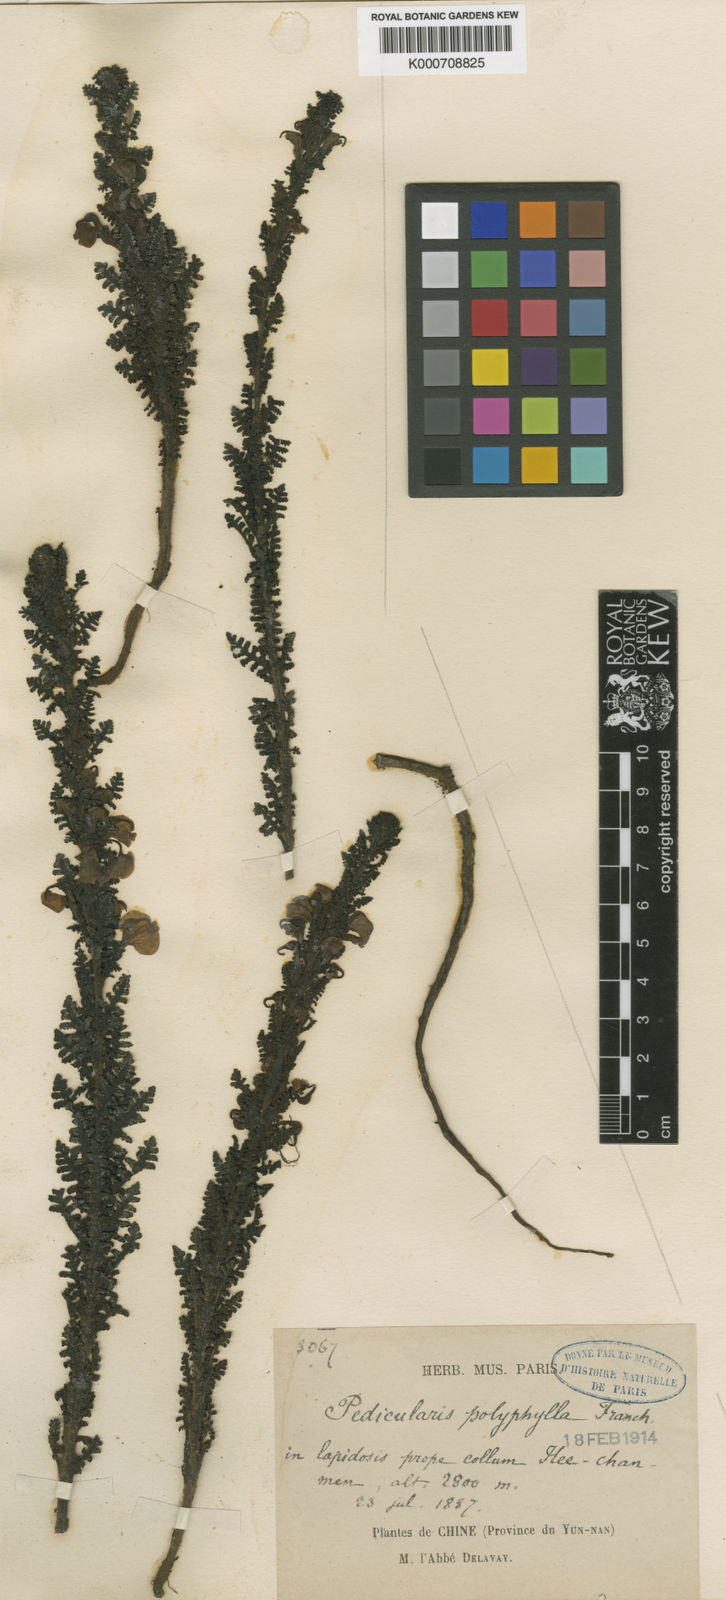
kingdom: Plantae
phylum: Tracheophyta
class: Magnoliopsida
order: Lamiales
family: Orobanchaceae
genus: Pedicularis
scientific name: Pedicularis
